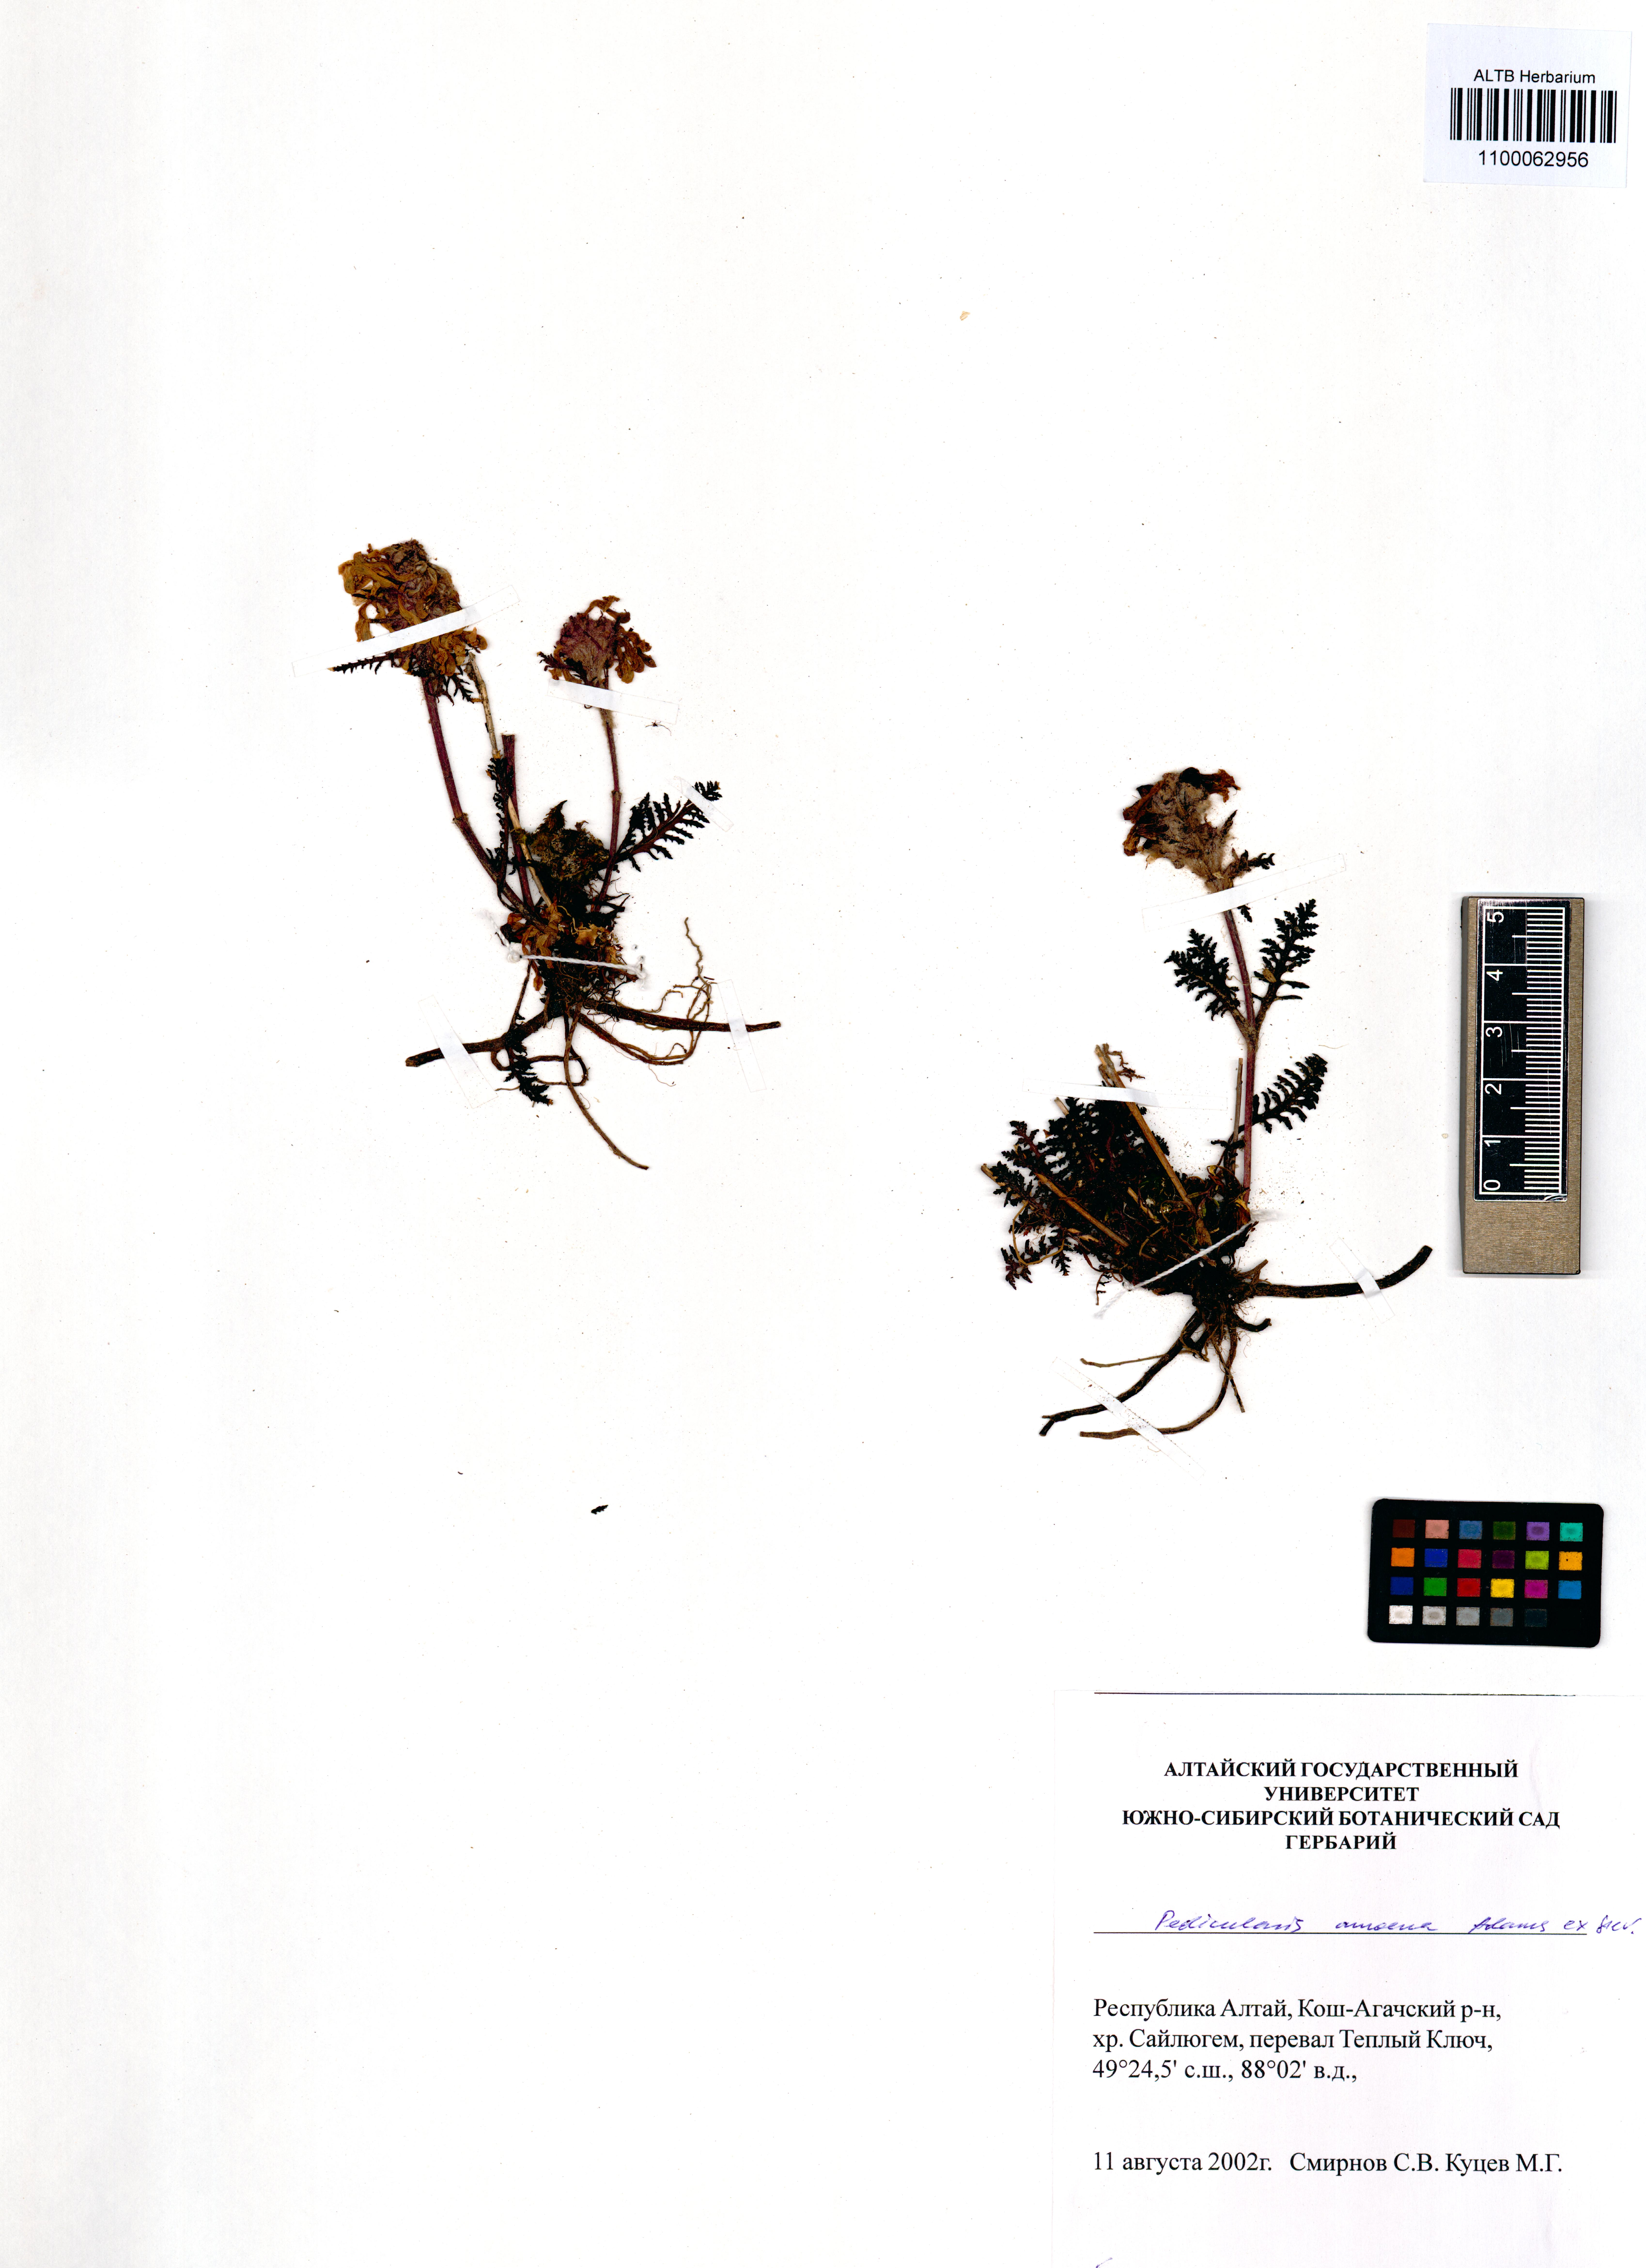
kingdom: Plantae
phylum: Tracheophyta
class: Magnoliopsida
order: Lamiales
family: Orobanchaceae
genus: Pedicularis
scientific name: Pedicularis amoena
